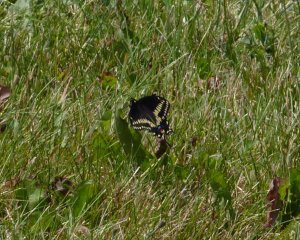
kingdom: Animalia
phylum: Arthropoda
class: Insecta
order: Lepidoptera
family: Papilionidae
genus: Papilio
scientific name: Papilio polyxenes
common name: Black Swallowtail
